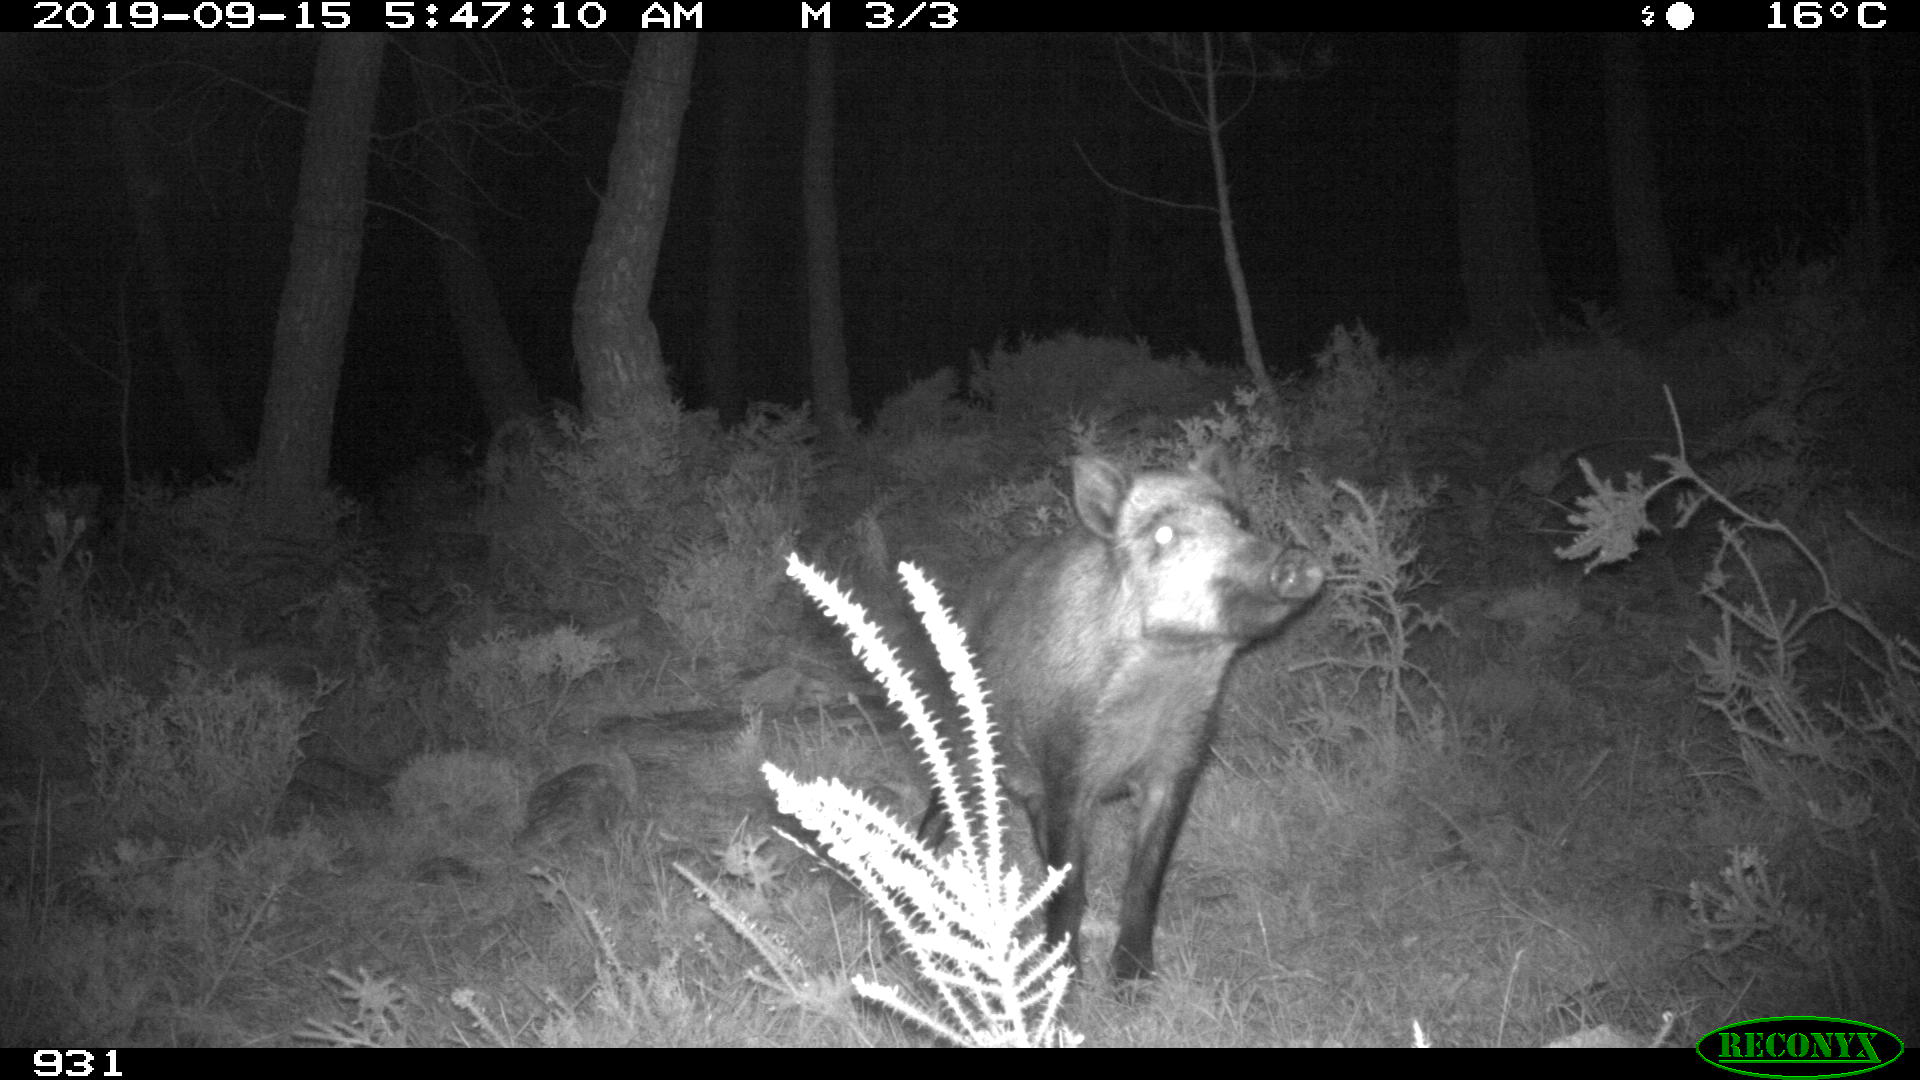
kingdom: Animalia
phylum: Chordata
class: Mammalia
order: Artiodactyla
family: Suidae
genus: Sus
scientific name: Sus scrofa
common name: Wild boar
